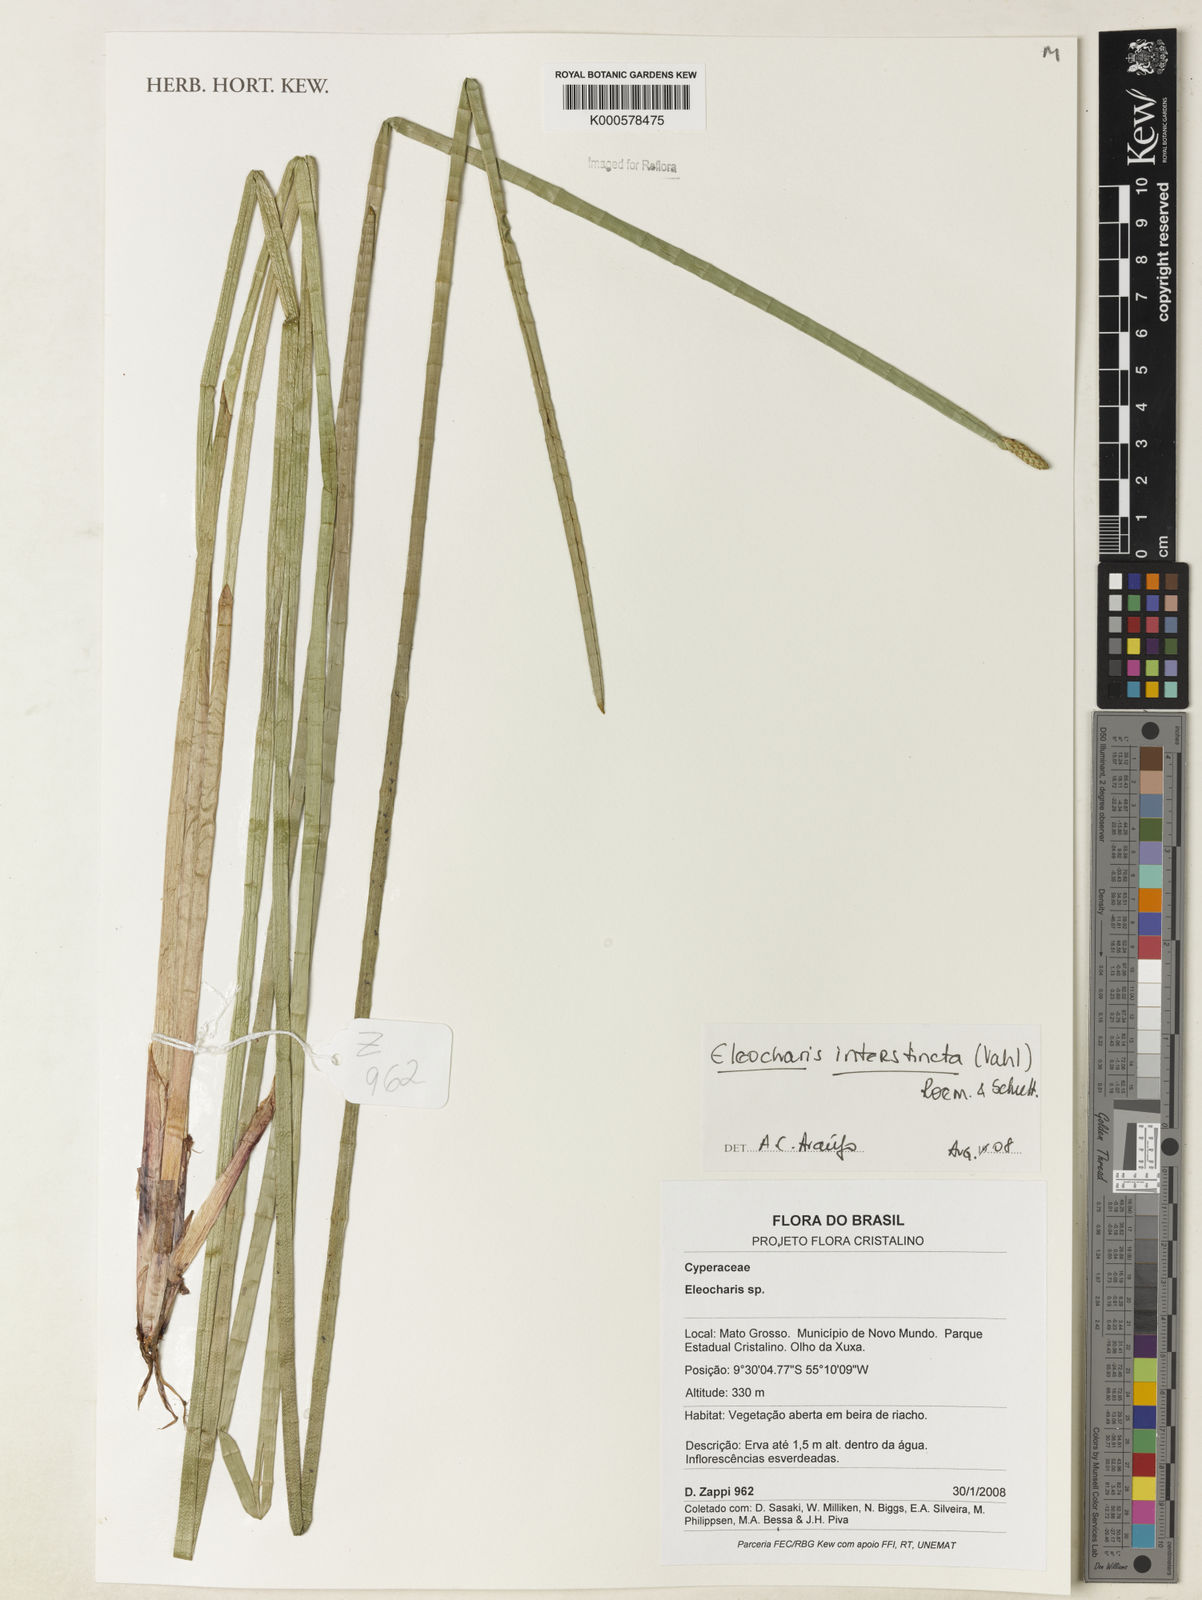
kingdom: Plantae
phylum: Tracheophyta
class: Liliopsida
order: Poales
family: Cyperaceae
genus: Eleocharis
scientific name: Eleocharis interstincta
